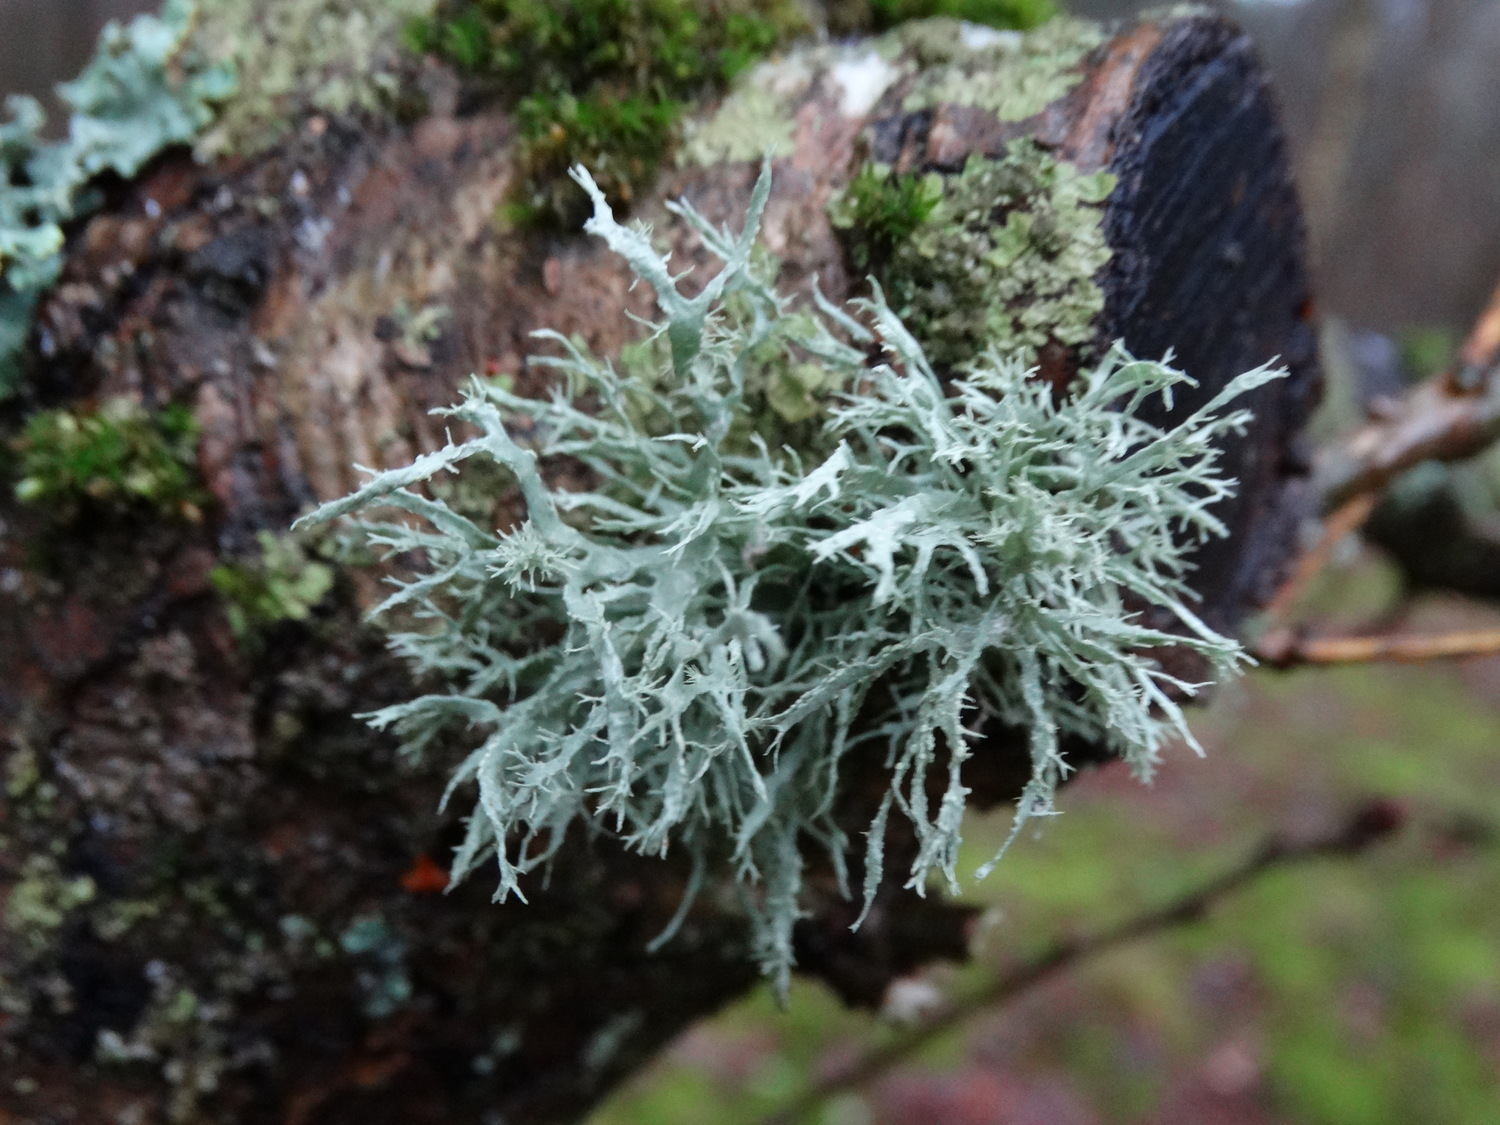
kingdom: Fungi
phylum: Ascomycota
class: Lecanoromycetes
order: Lecanorales
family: Ramalinaceae
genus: Ramalina
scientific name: Ramalina farinacea
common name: melet grenlav
